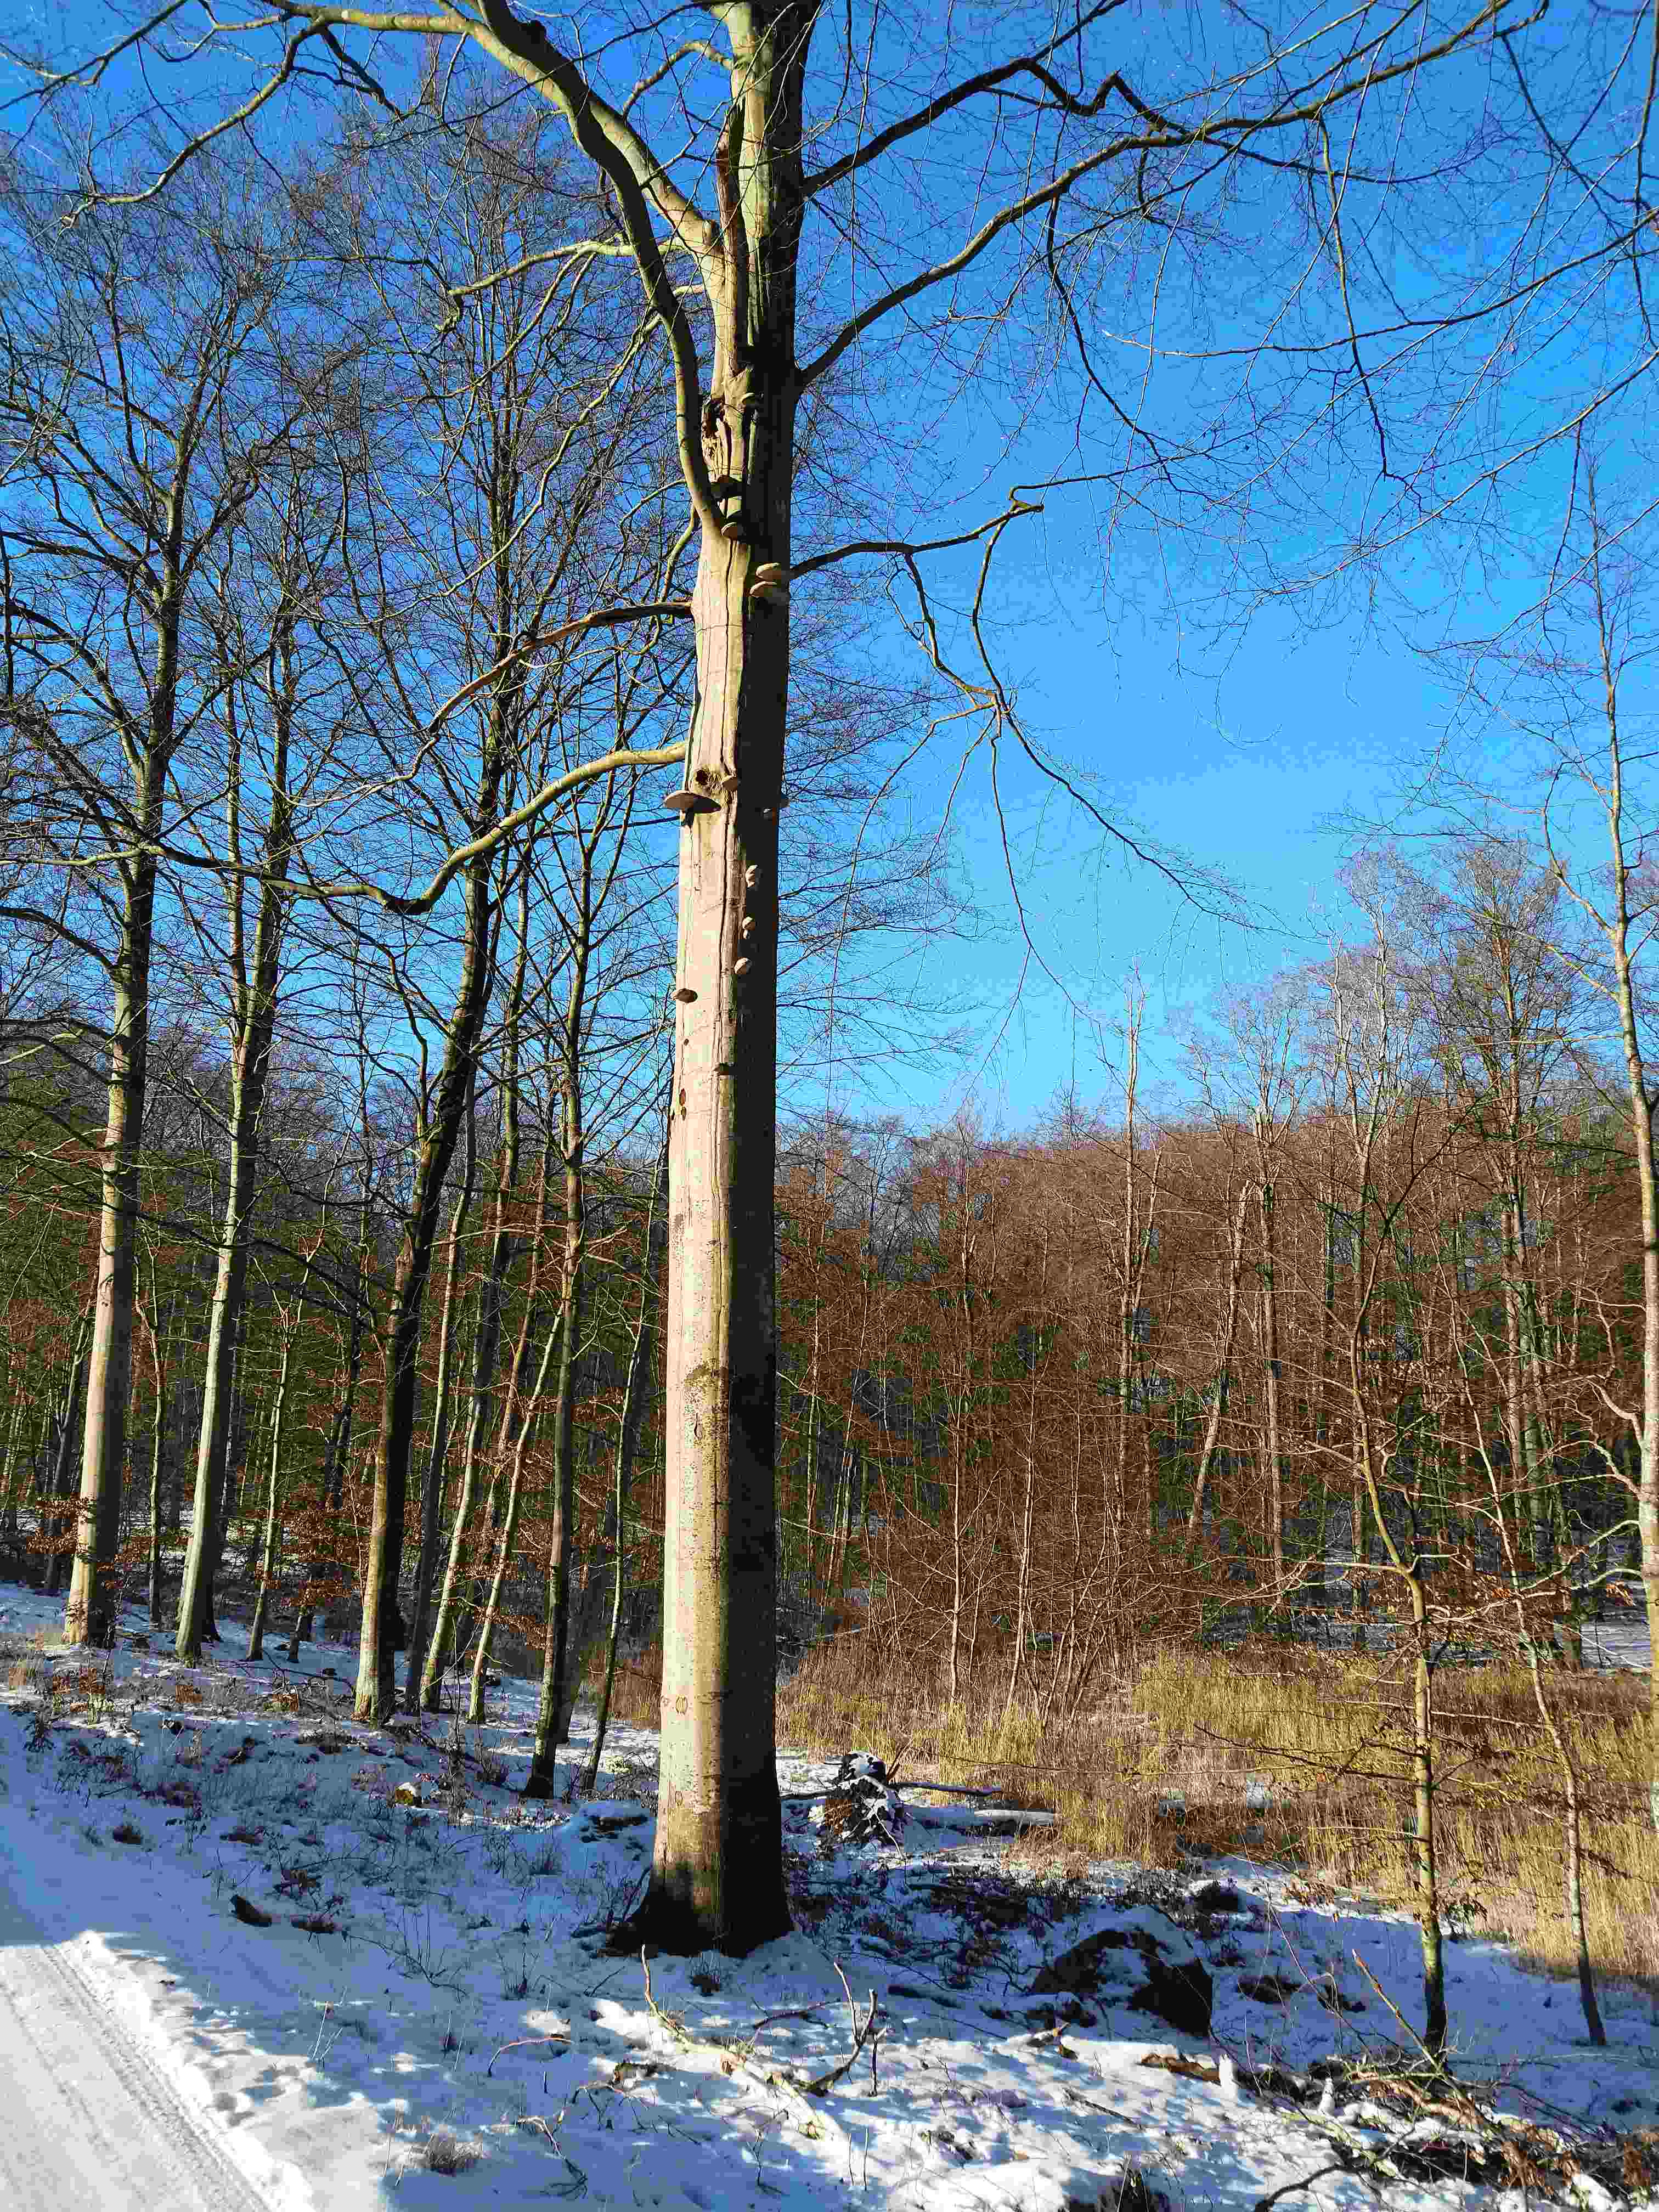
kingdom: Fungi
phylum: Basidiomycota
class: Agaricomycetes
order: Polyporales
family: Polyporaceae
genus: Fomes
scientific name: Fomes fomentarius
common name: tøndersvamp
